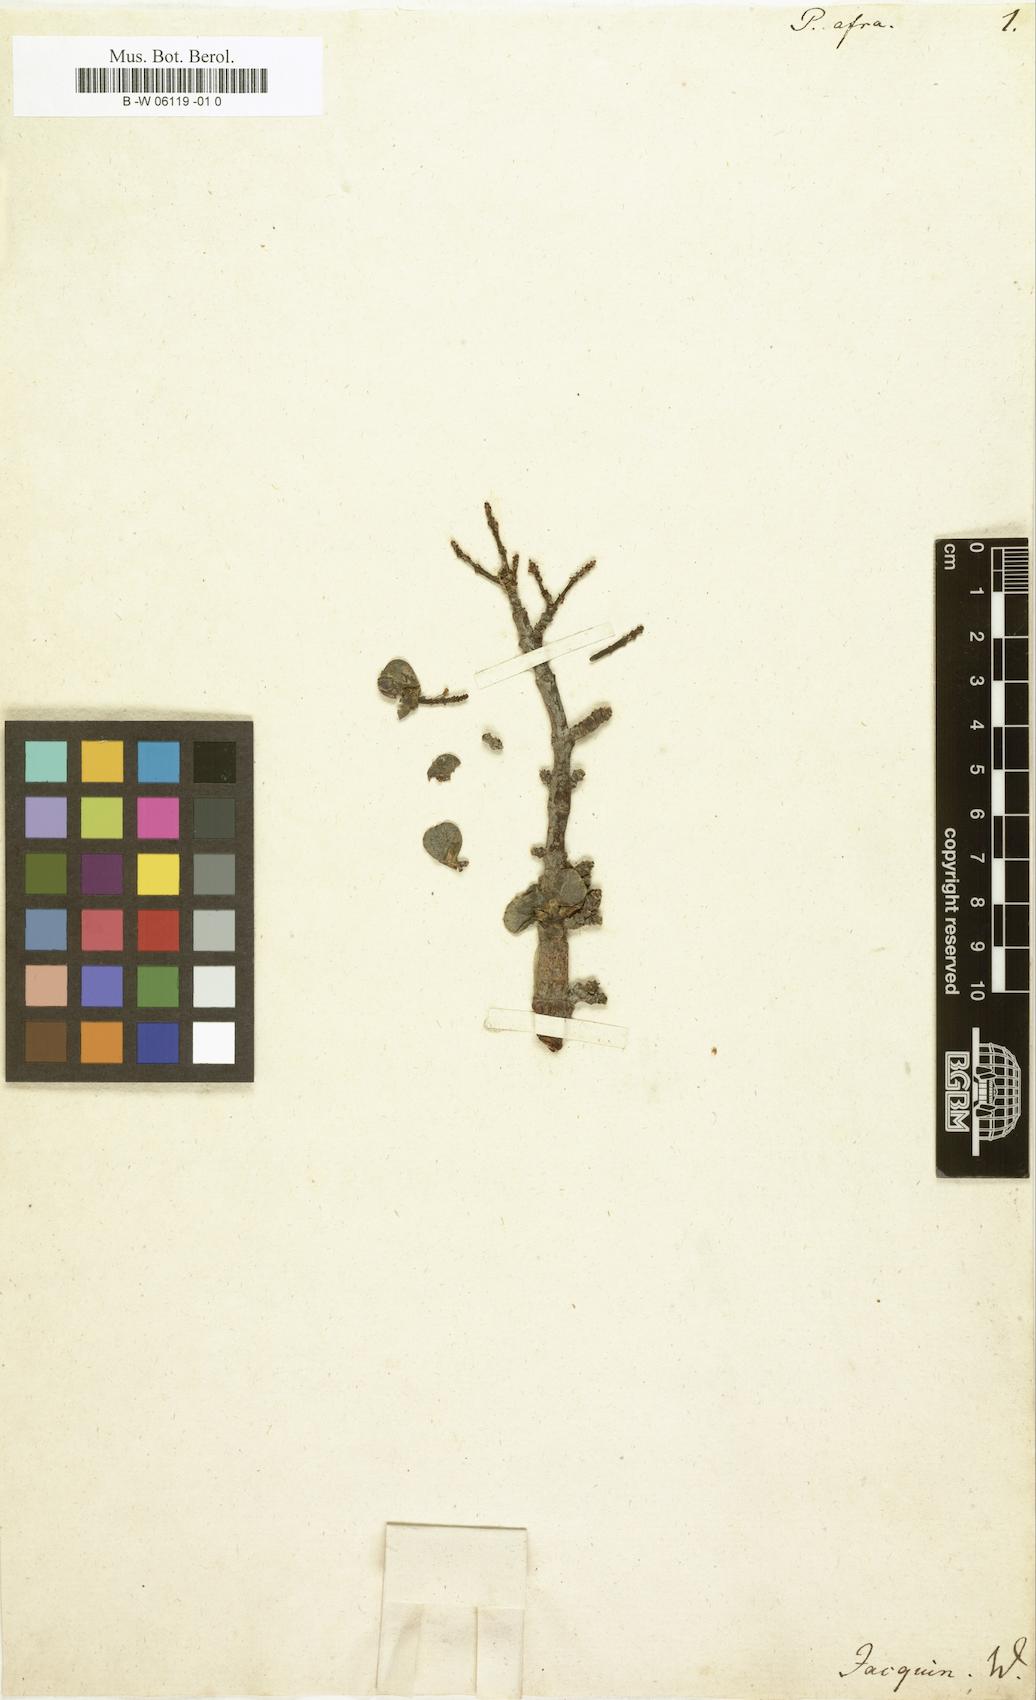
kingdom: Plantae
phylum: Tracheophyta
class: Magnoliopsida
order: Caryophyllales
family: Didiereaceae
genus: Portulacaria
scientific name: Portulacaria afra
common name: Elephant-bush
